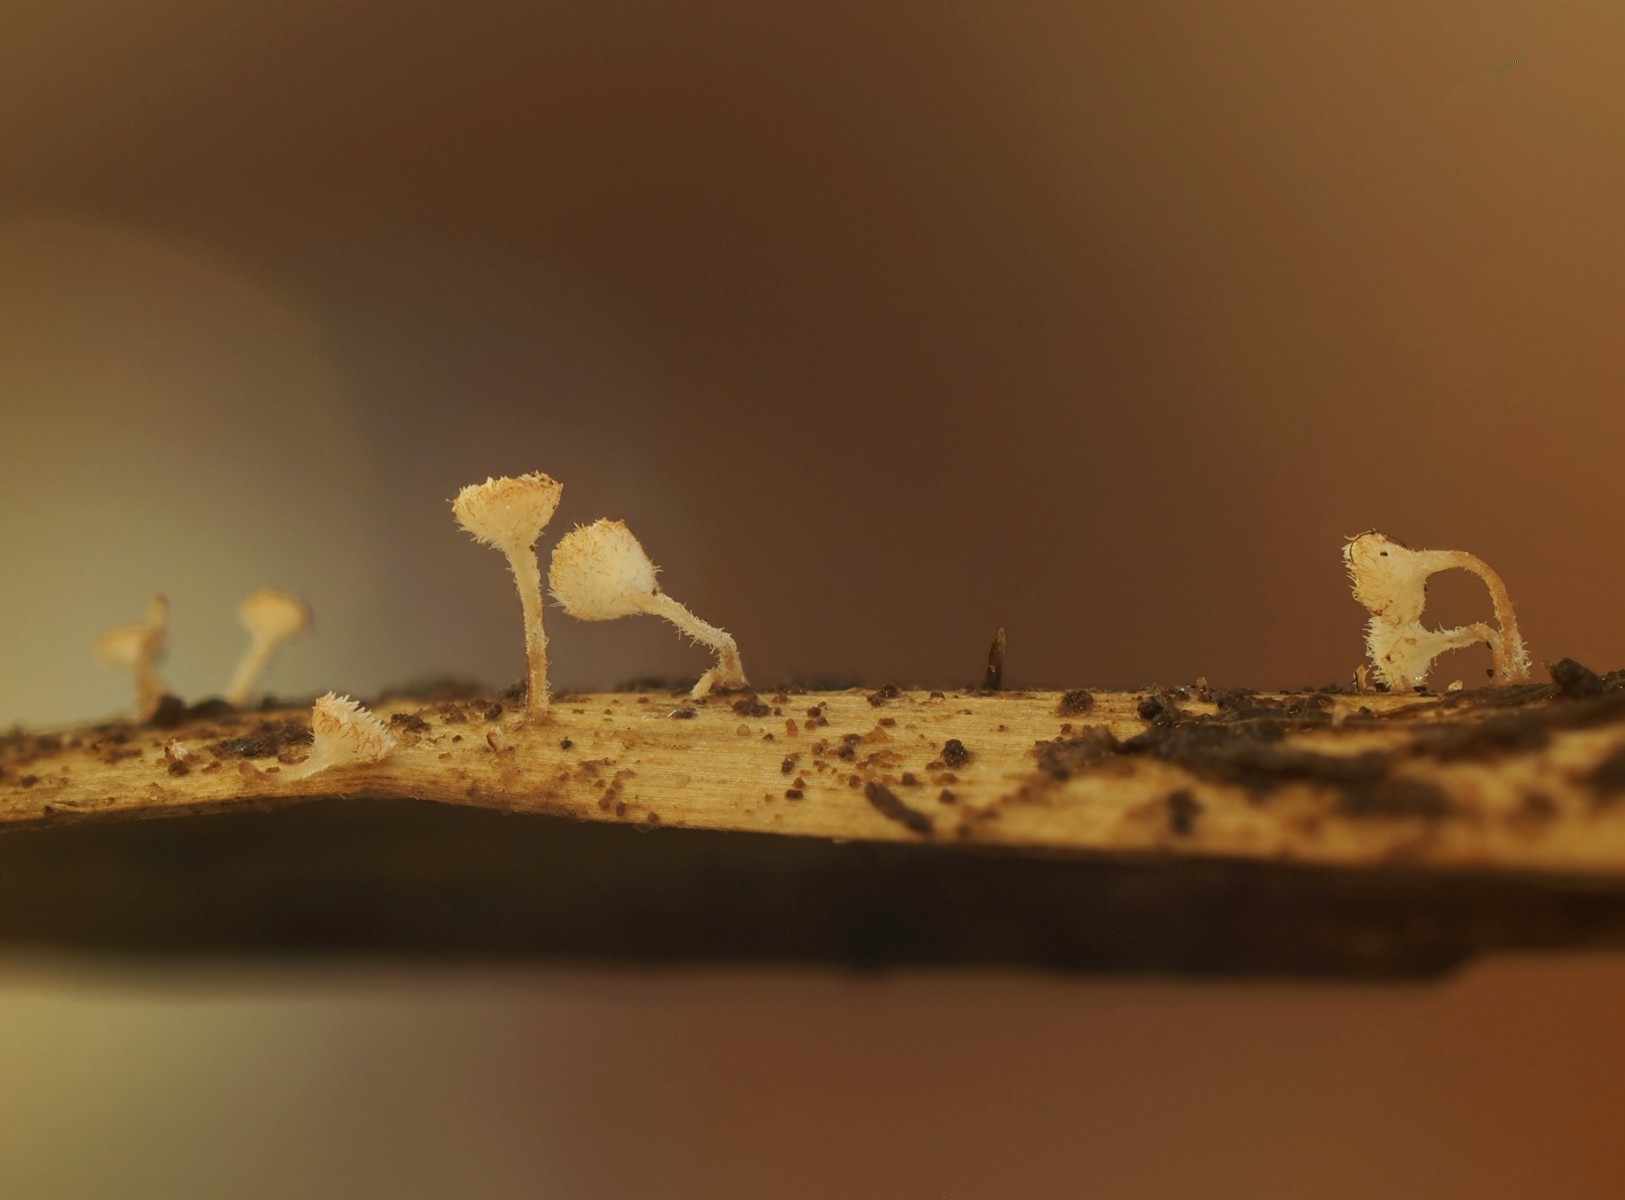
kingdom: Fungi
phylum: Ascomycota
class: Leotiomycetes
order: Helotiales
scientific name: Helotiales
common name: stilkskiveordenen
